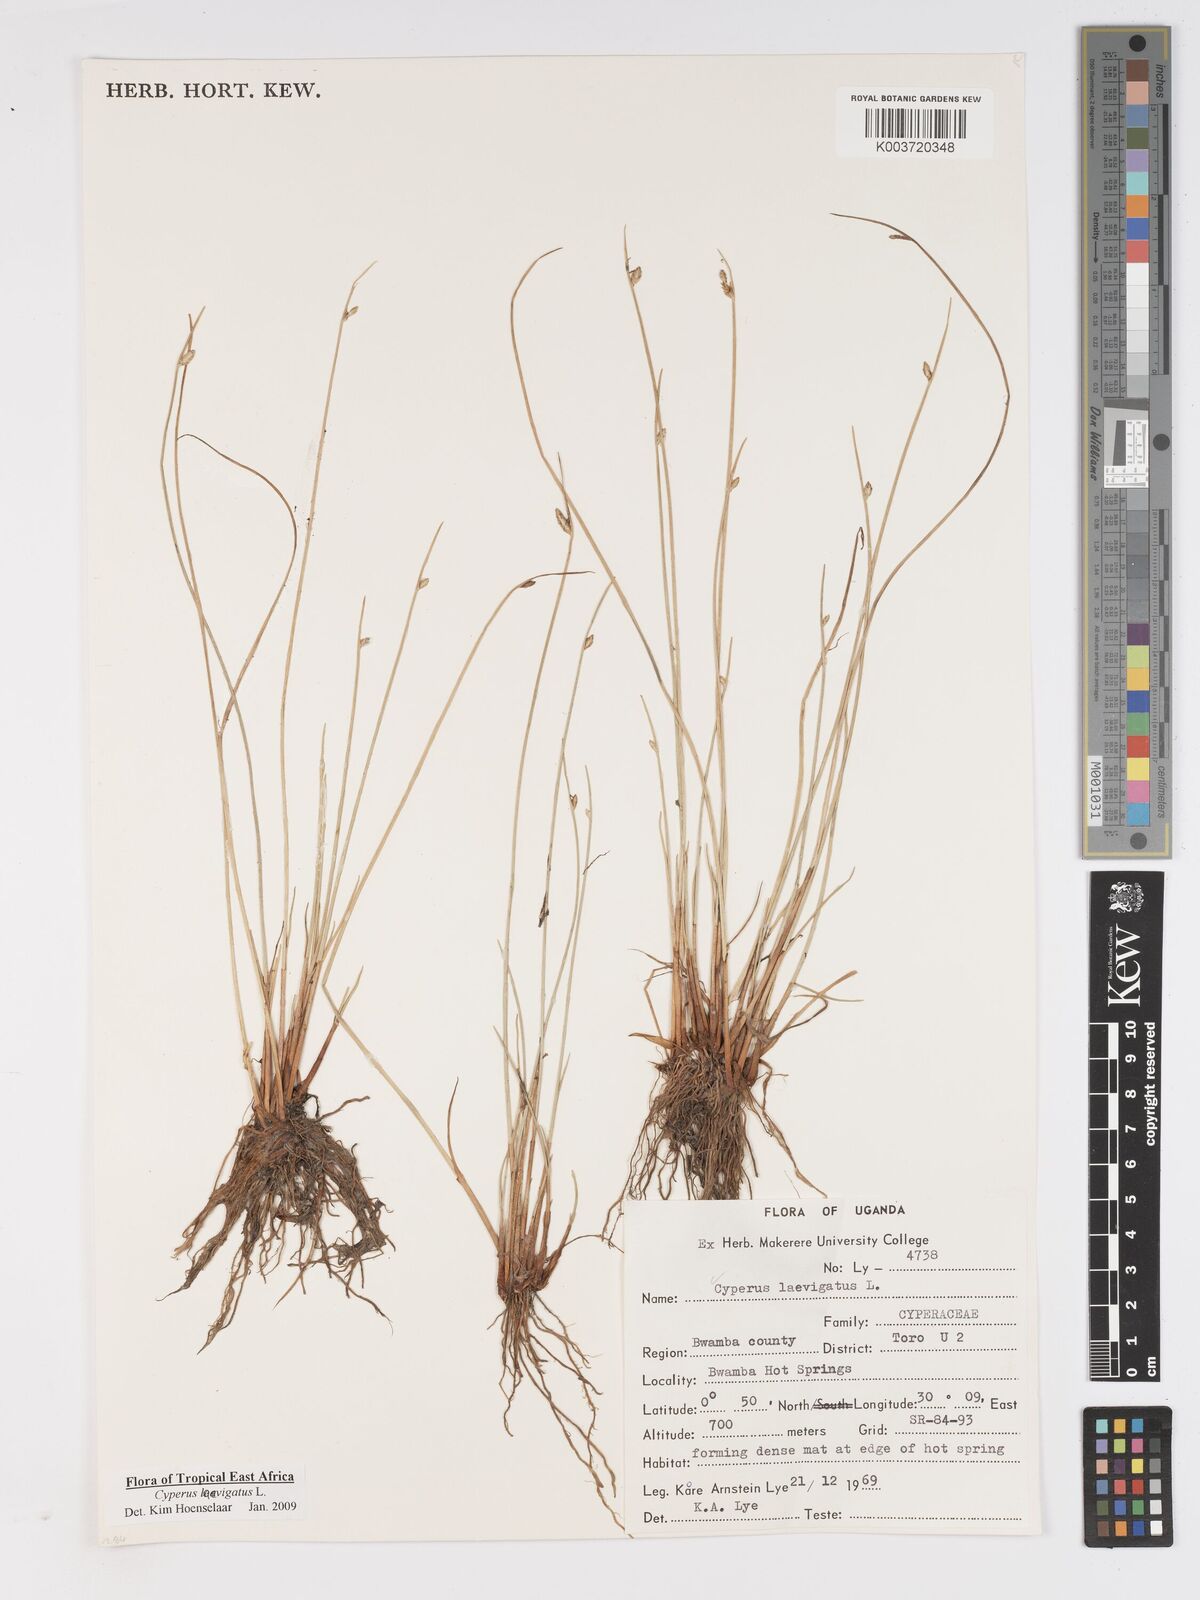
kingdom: Plantae
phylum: Tracheophyta
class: Liliopsida
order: Poales
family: Cyperaceae
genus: Cyperus
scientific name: Cyperus laevigatus
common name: Smooth flat sedge
